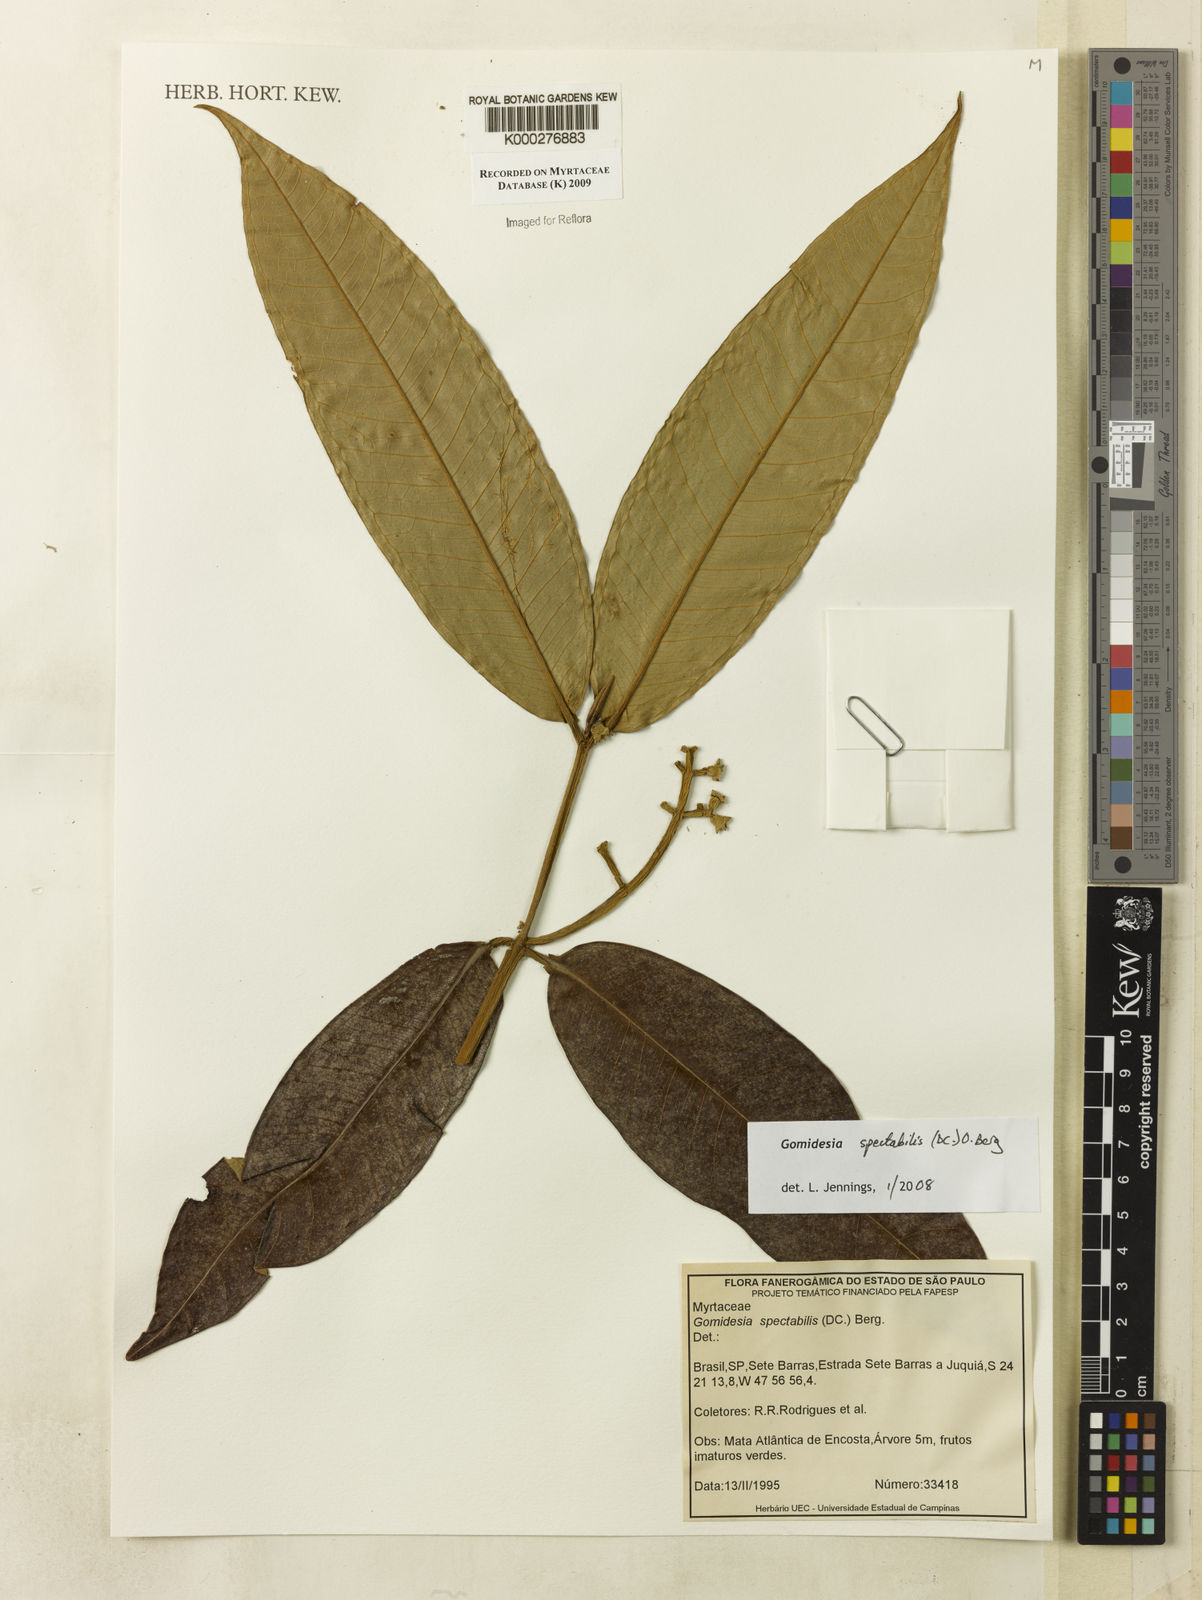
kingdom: Plantae
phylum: Tracheophyta
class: Magnoliopsida
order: Myrtales
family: Myrtaceae
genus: Myrcia
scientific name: Myrcia spectabilis
